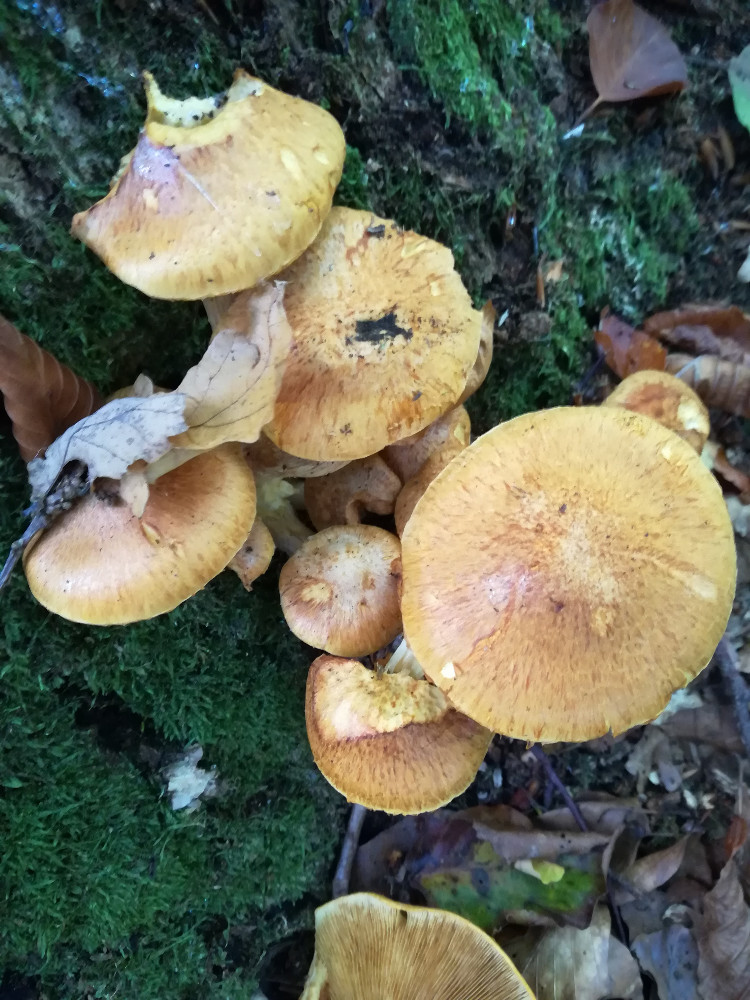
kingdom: Fungi
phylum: Basidiomycota
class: Agaricomycetes
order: Agaricales
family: Hymenogastraceae
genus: Gymnopilus
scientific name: Gymnopilus spectabilis
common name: fibret flammehat
